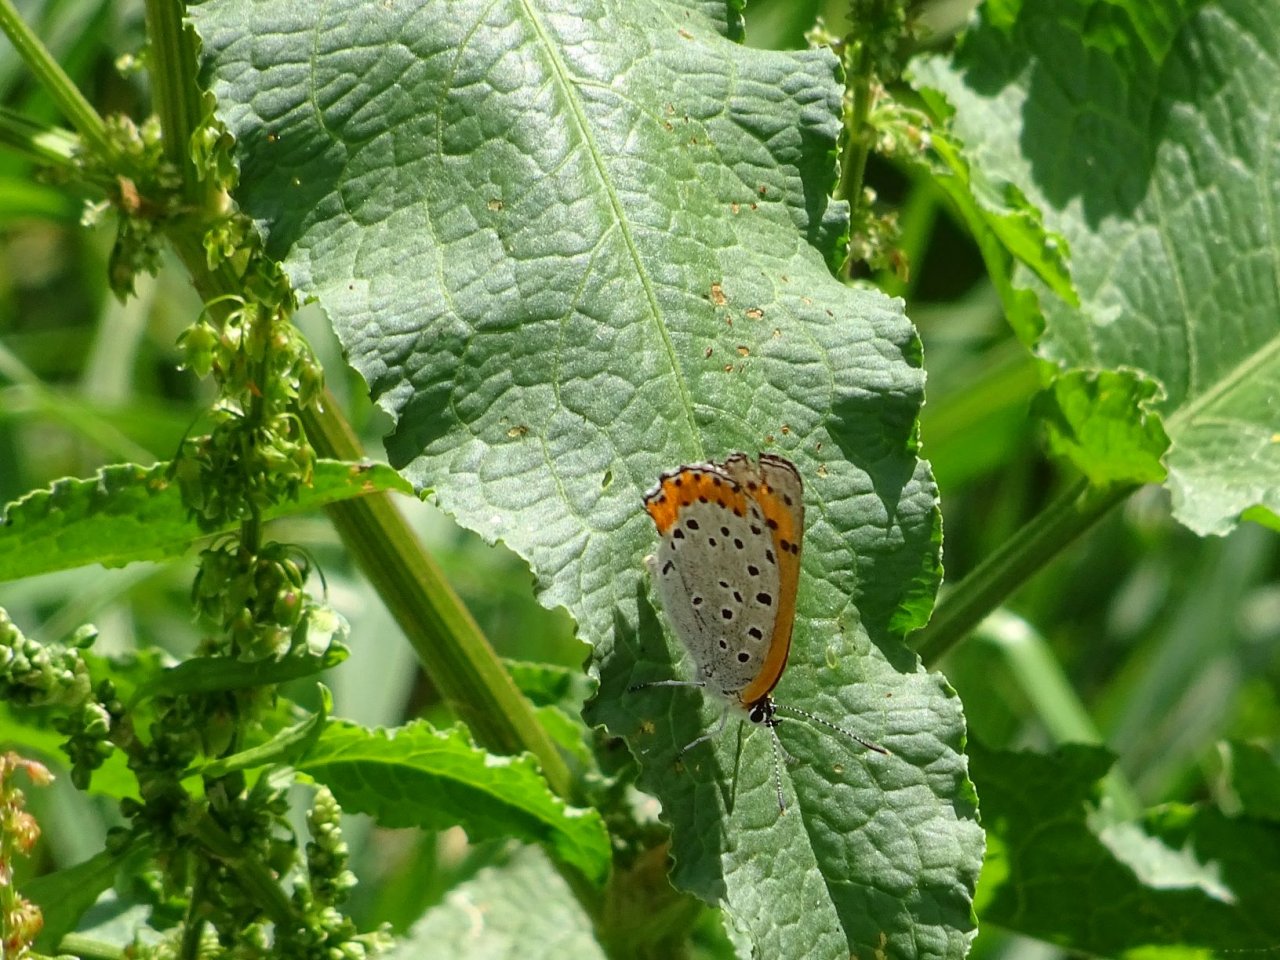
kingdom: Animalia
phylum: Arthropoda
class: Insecta
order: Lepidoptera
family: Sesiidae
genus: Sesia
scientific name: Sesia Lycaena hyllus
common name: Bronze Copper
